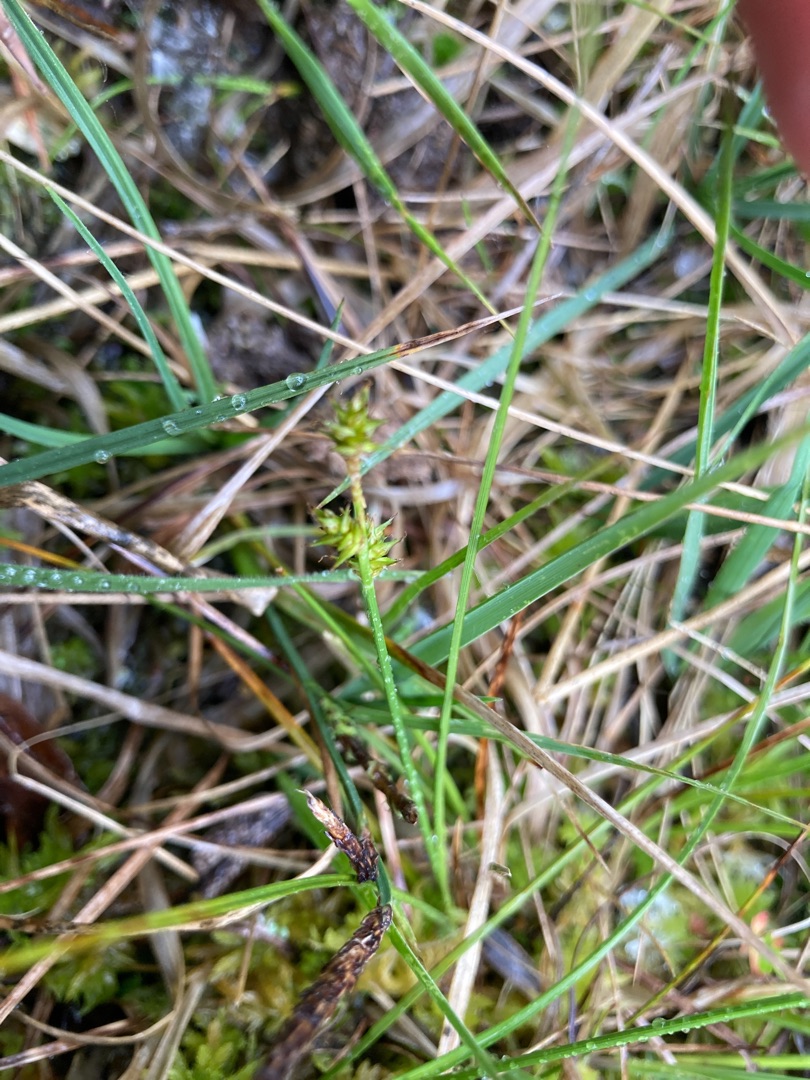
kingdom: Plantae
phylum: Tracheophyta
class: Liliopsida
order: Poales
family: Cyperaceae
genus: Carex
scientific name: Carex echinata
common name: Stjerne-star
